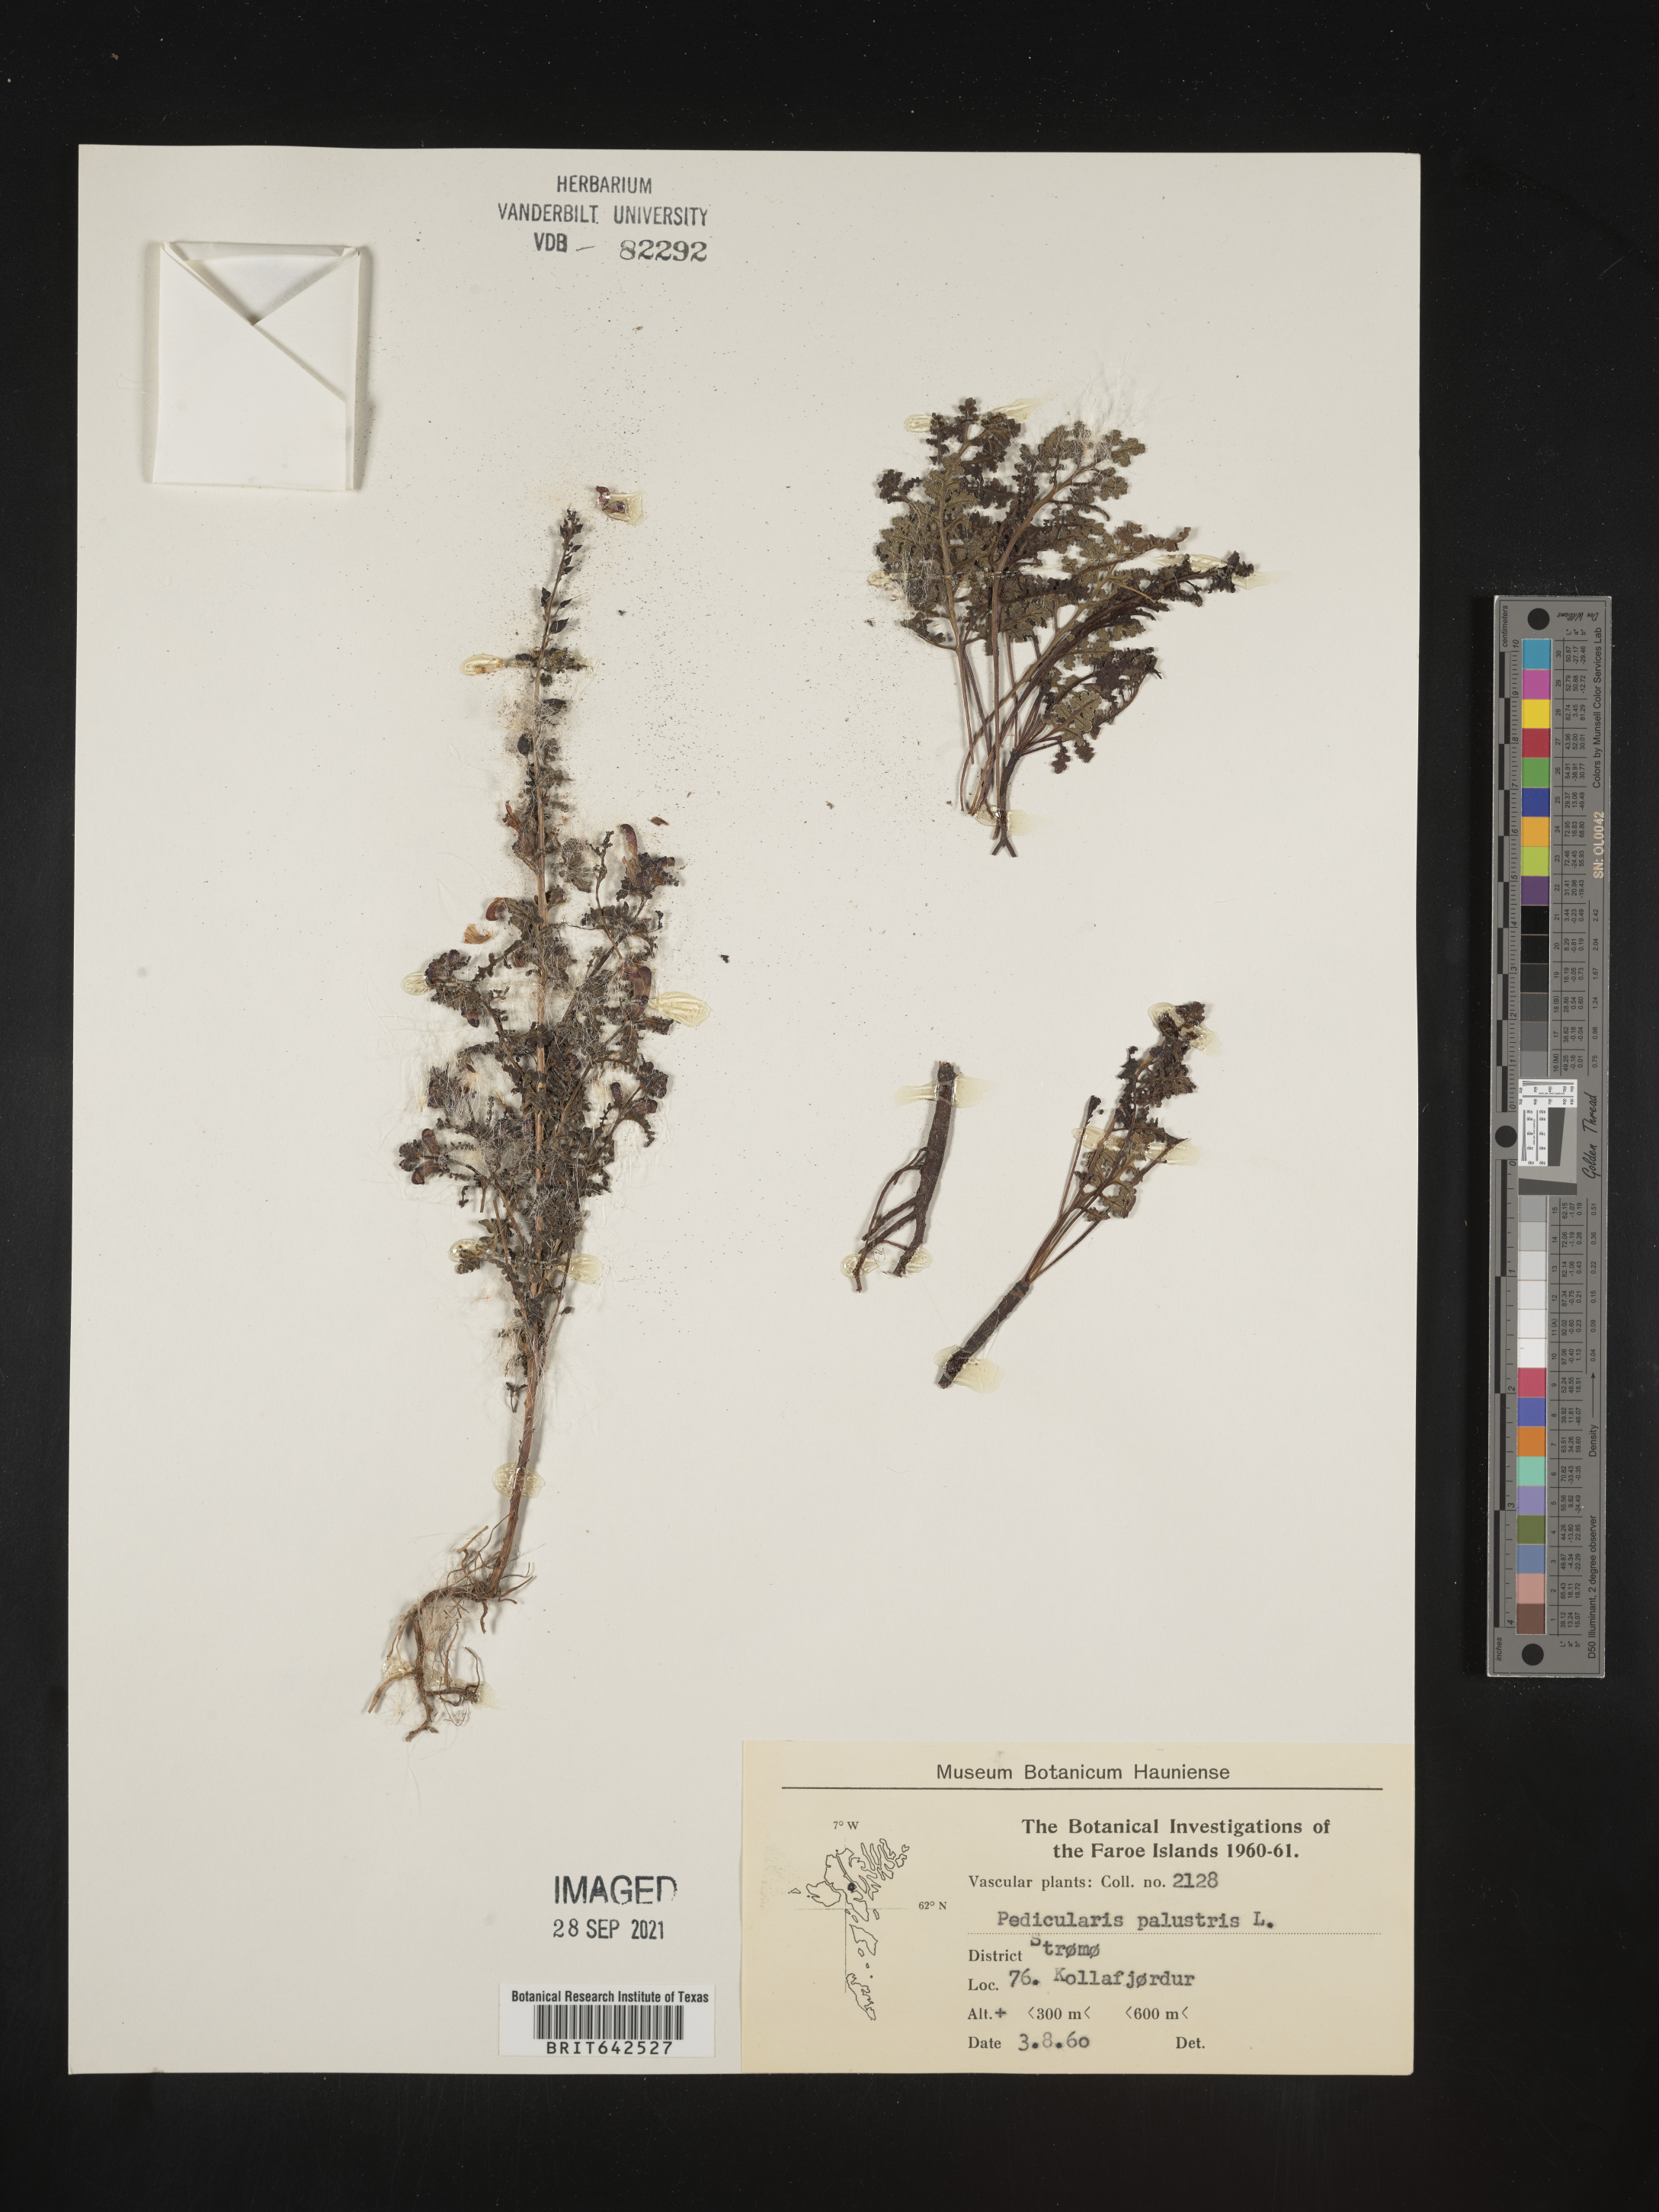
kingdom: Plantae
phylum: Tracheophyta
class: Magnoliopsida
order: Lamiales
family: Orobanchaceae
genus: Pedicularis
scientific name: Pedicularis
